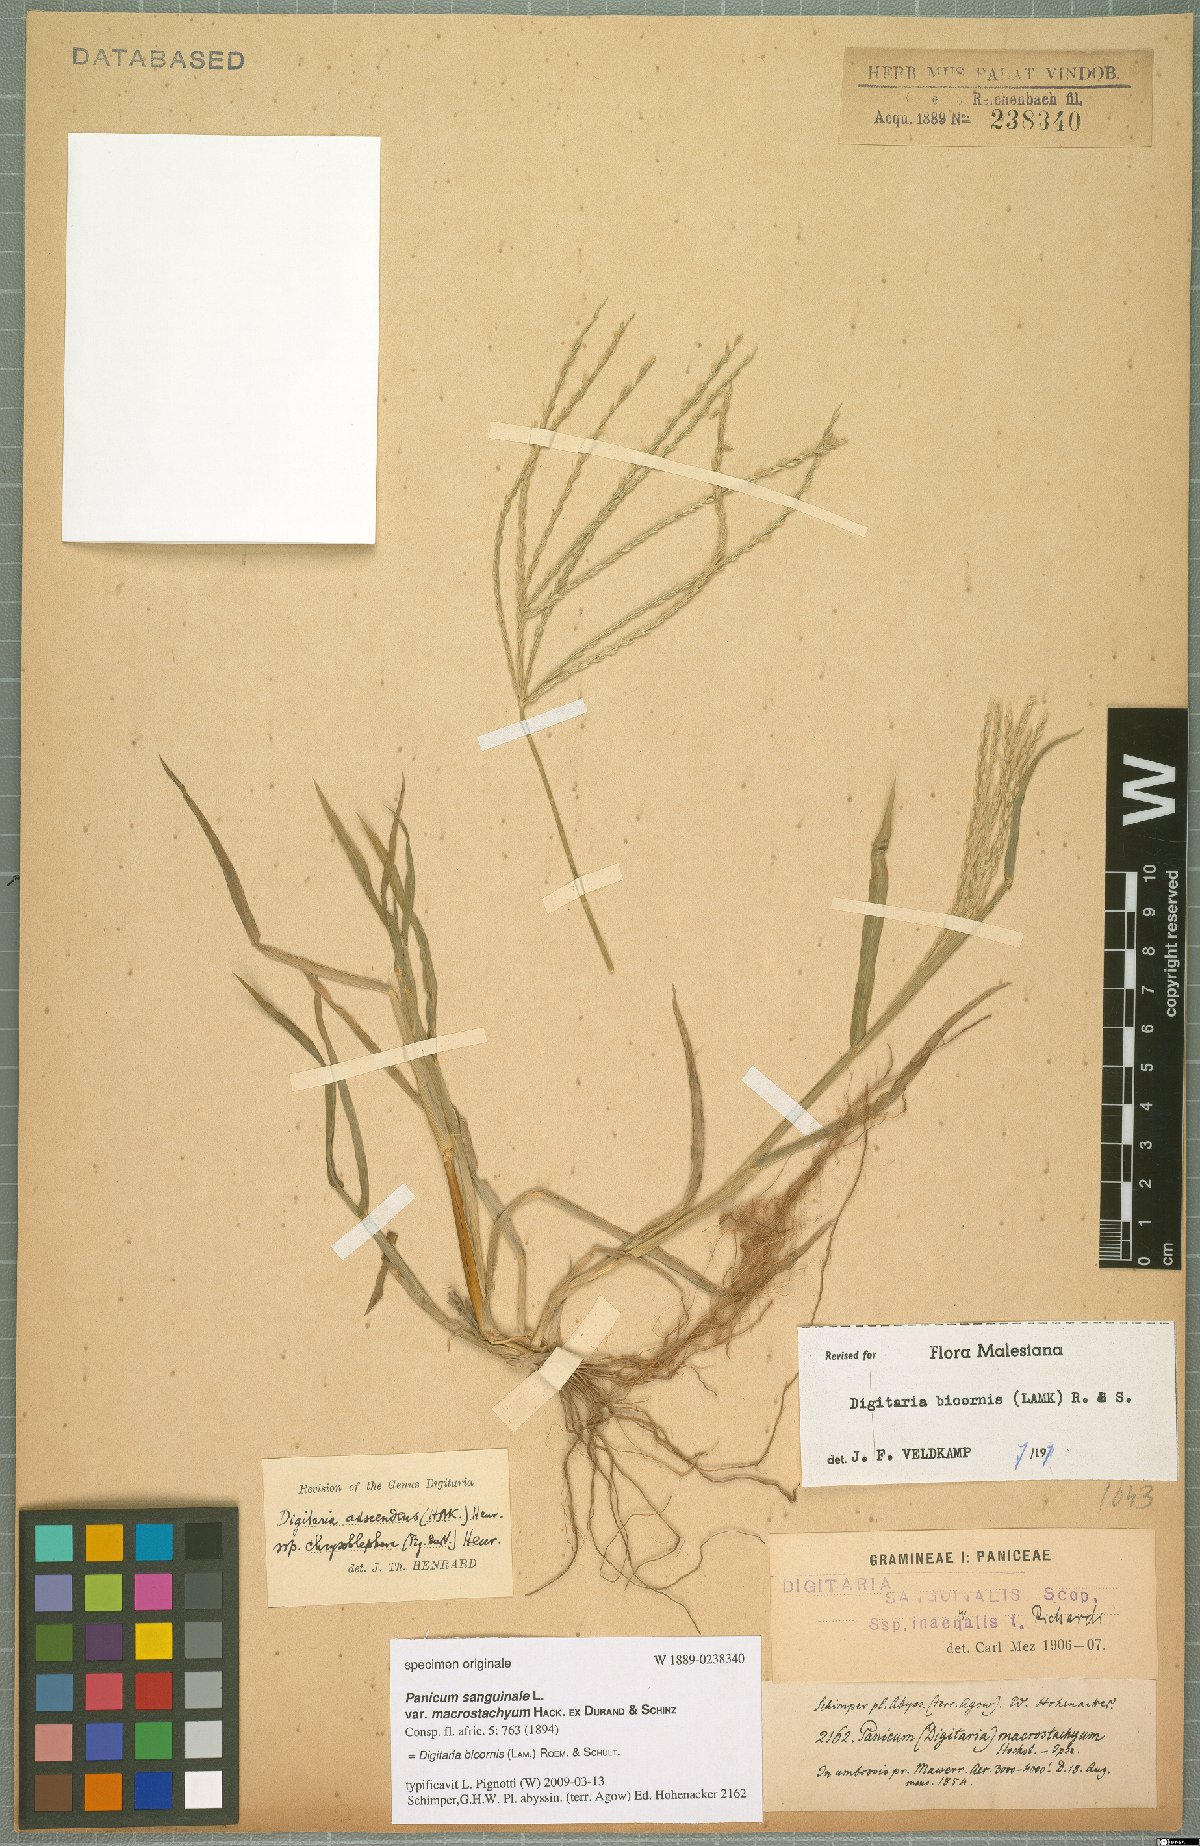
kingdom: Plantae
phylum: Tracheophyta
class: Liliopsida
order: Poales
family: Poaceae
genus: Digitaria
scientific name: Digitaria bicornis
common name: Asian crabgrass
